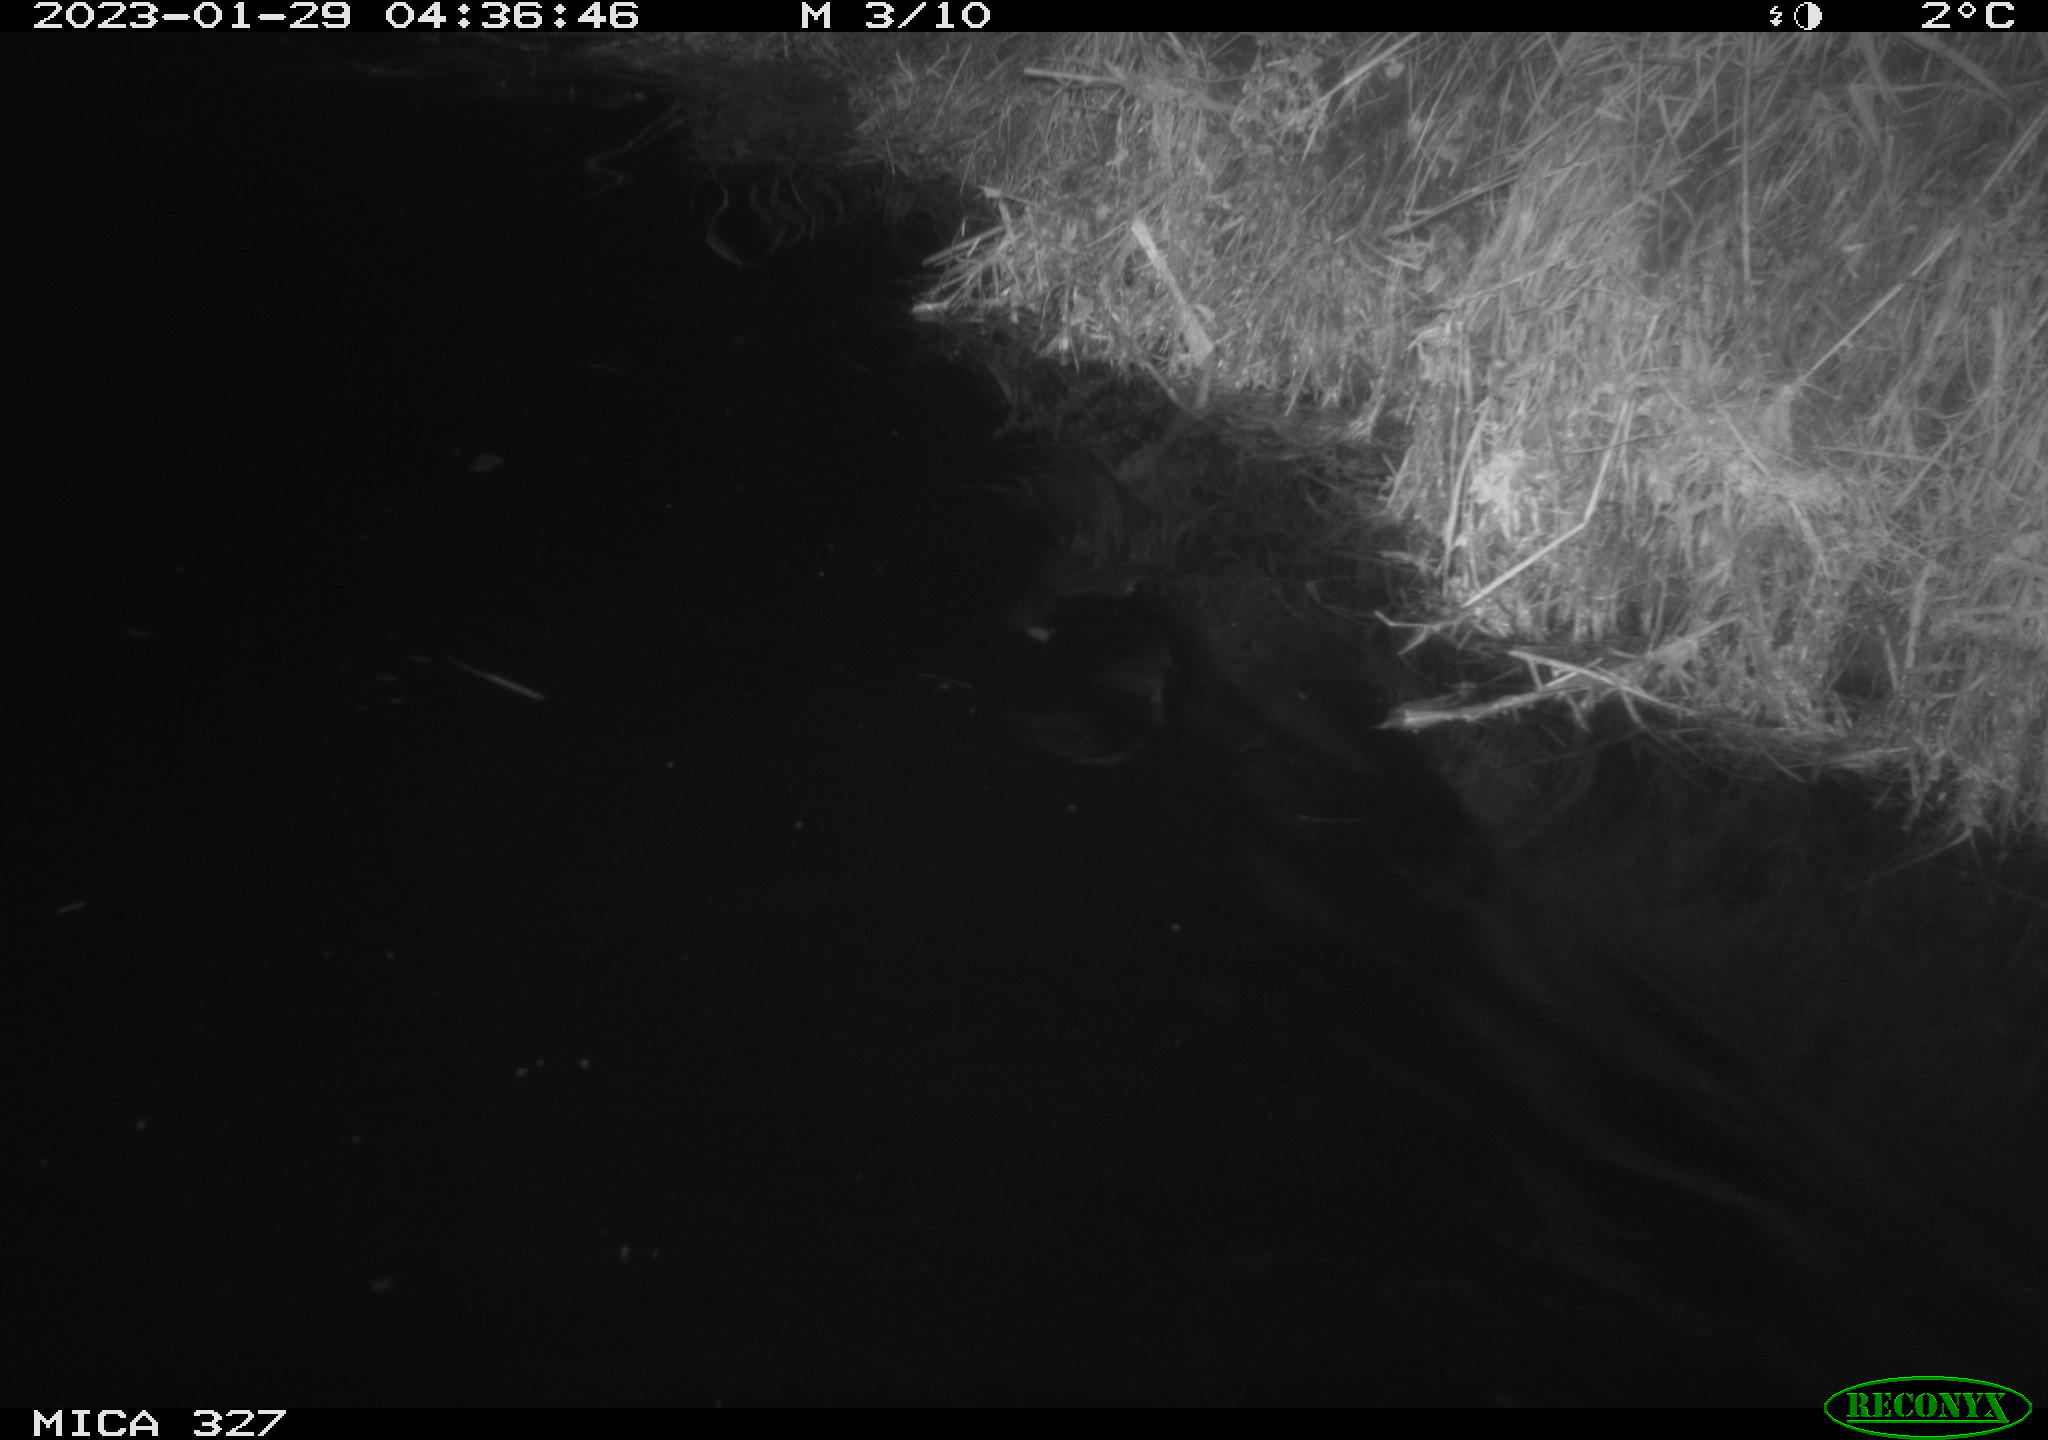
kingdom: Animalia
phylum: Chordata
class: Mammalia
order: Rodentia
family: Cricetidae
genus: Ondatra
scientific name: Ondatra zibethicus
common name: Muskrat
